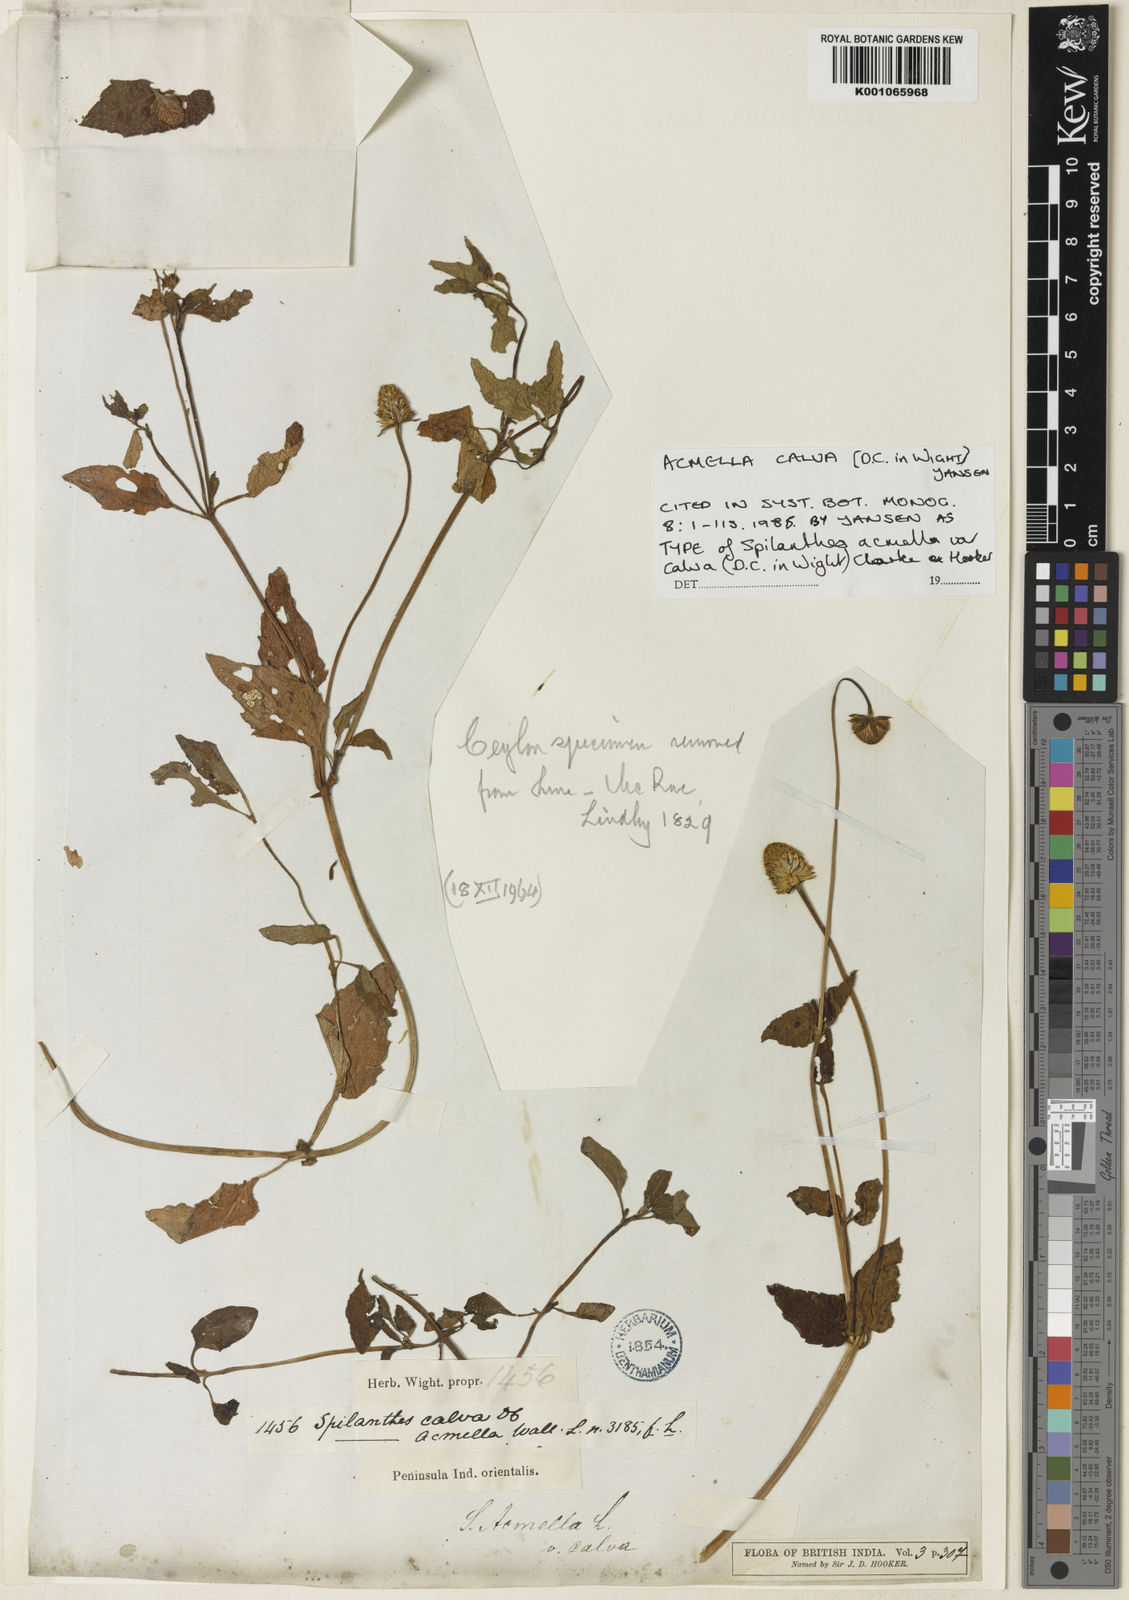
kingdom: Plantae
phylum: Tracheophyta
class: Magnoliopsida
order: Asterales
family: Asteraceae
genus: Acmella
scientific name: Acmella calva
